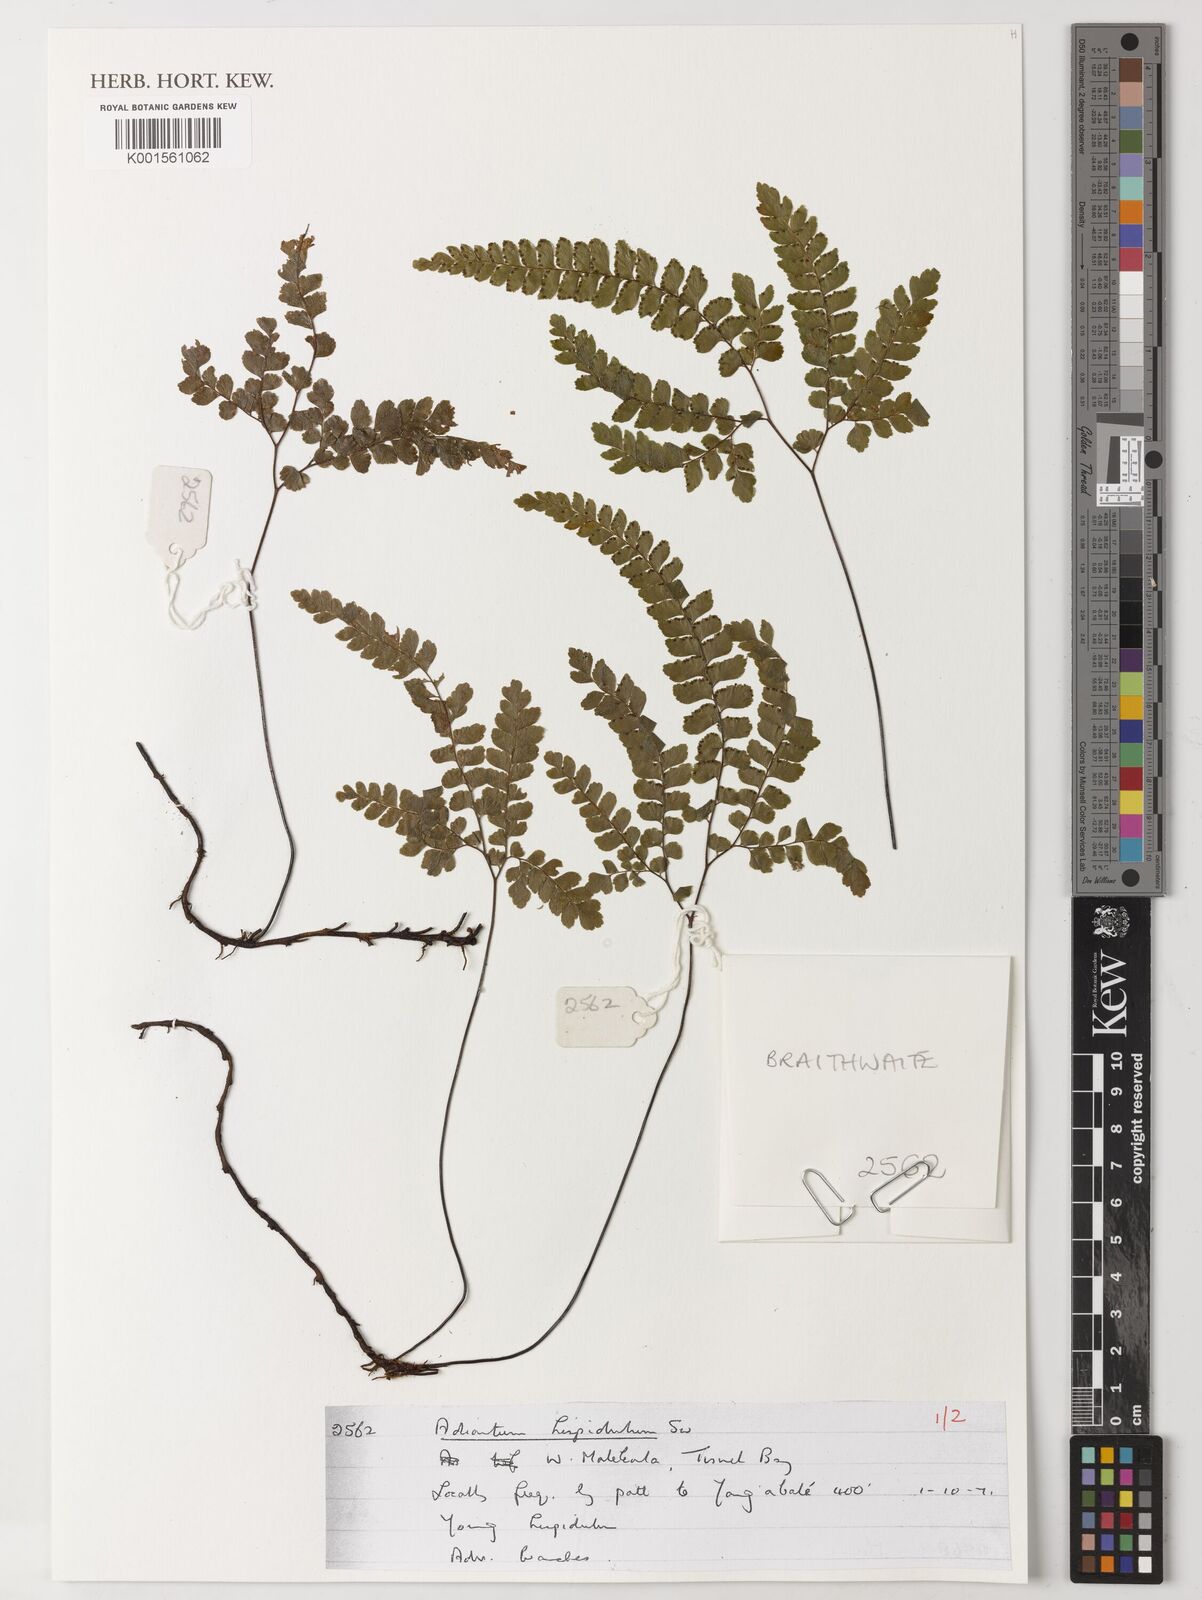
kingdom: Plantae
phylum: Tracheophyta
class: Polypodiopsida
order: Polypodiales
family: Pteridaceae
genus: Adiantum
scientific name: Adiantum hispidulum
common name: Rough maidenhair
